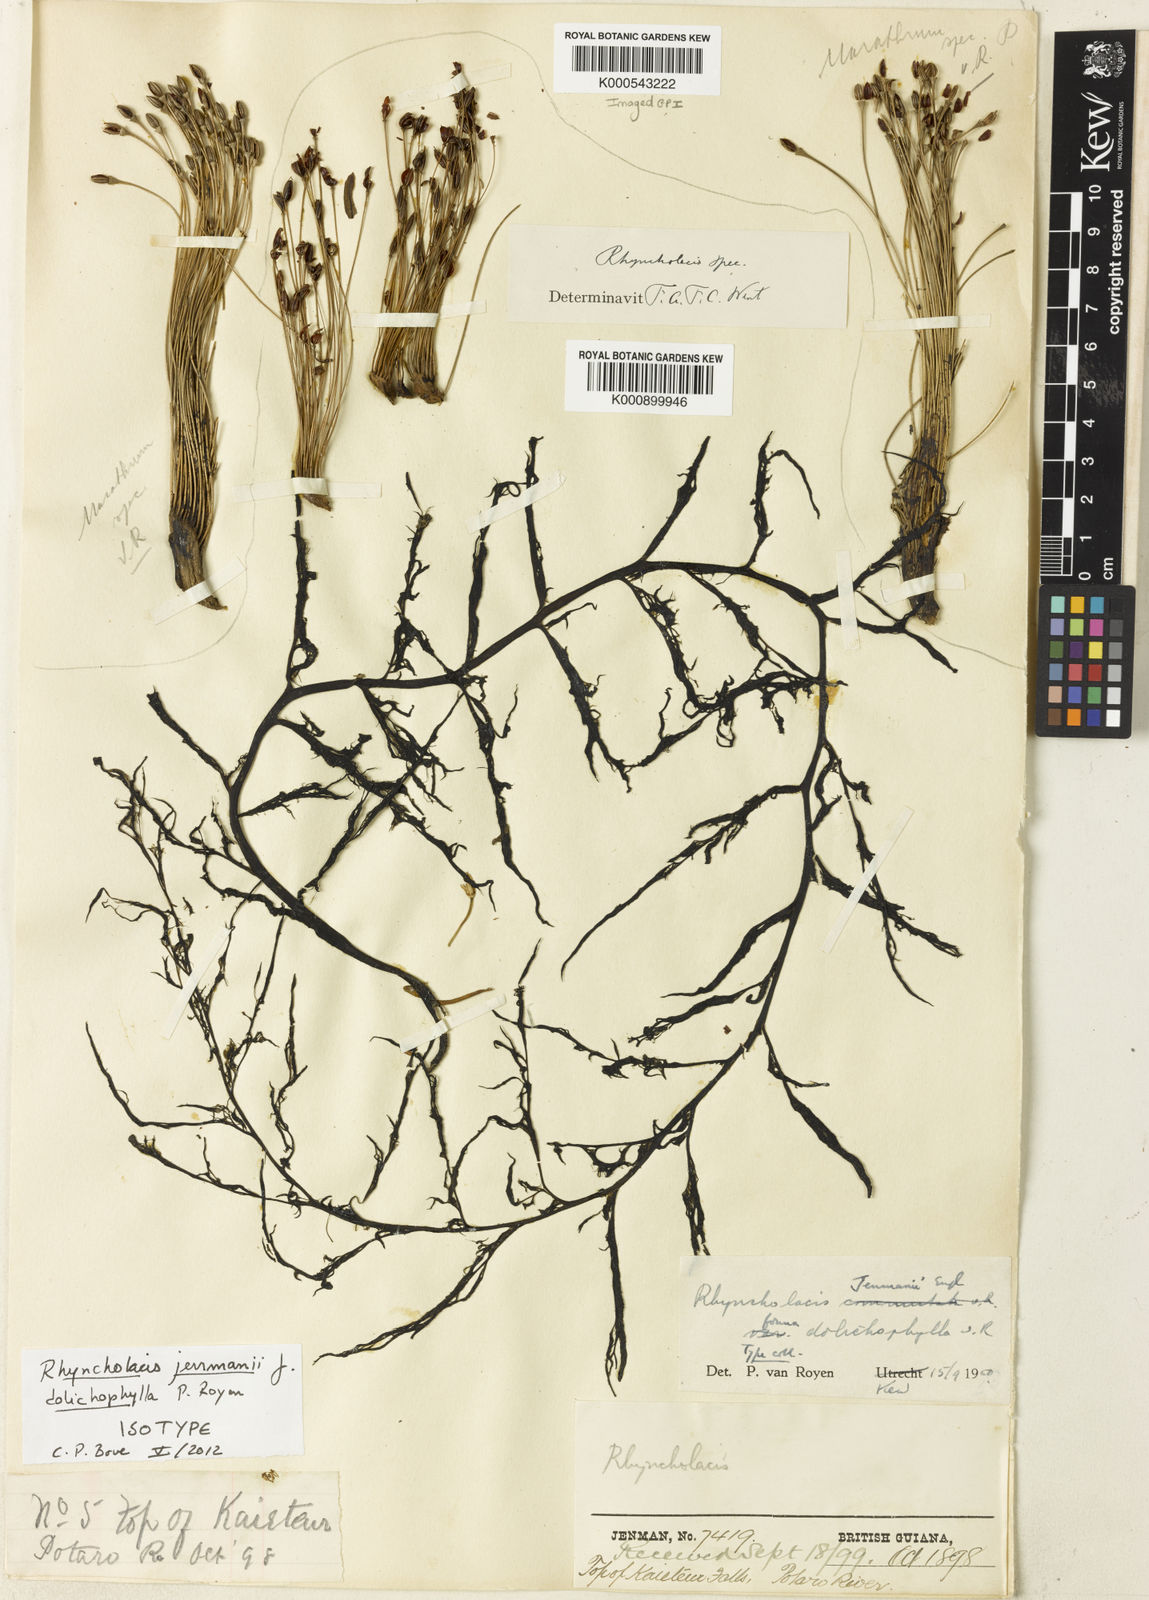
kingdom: Plantae
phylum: Tracheophyta
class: Magnoliopsida
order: Malpighiales
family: Podostemaceae
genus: Rhyncholacis
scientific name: Rhyncholacis jenmanii
